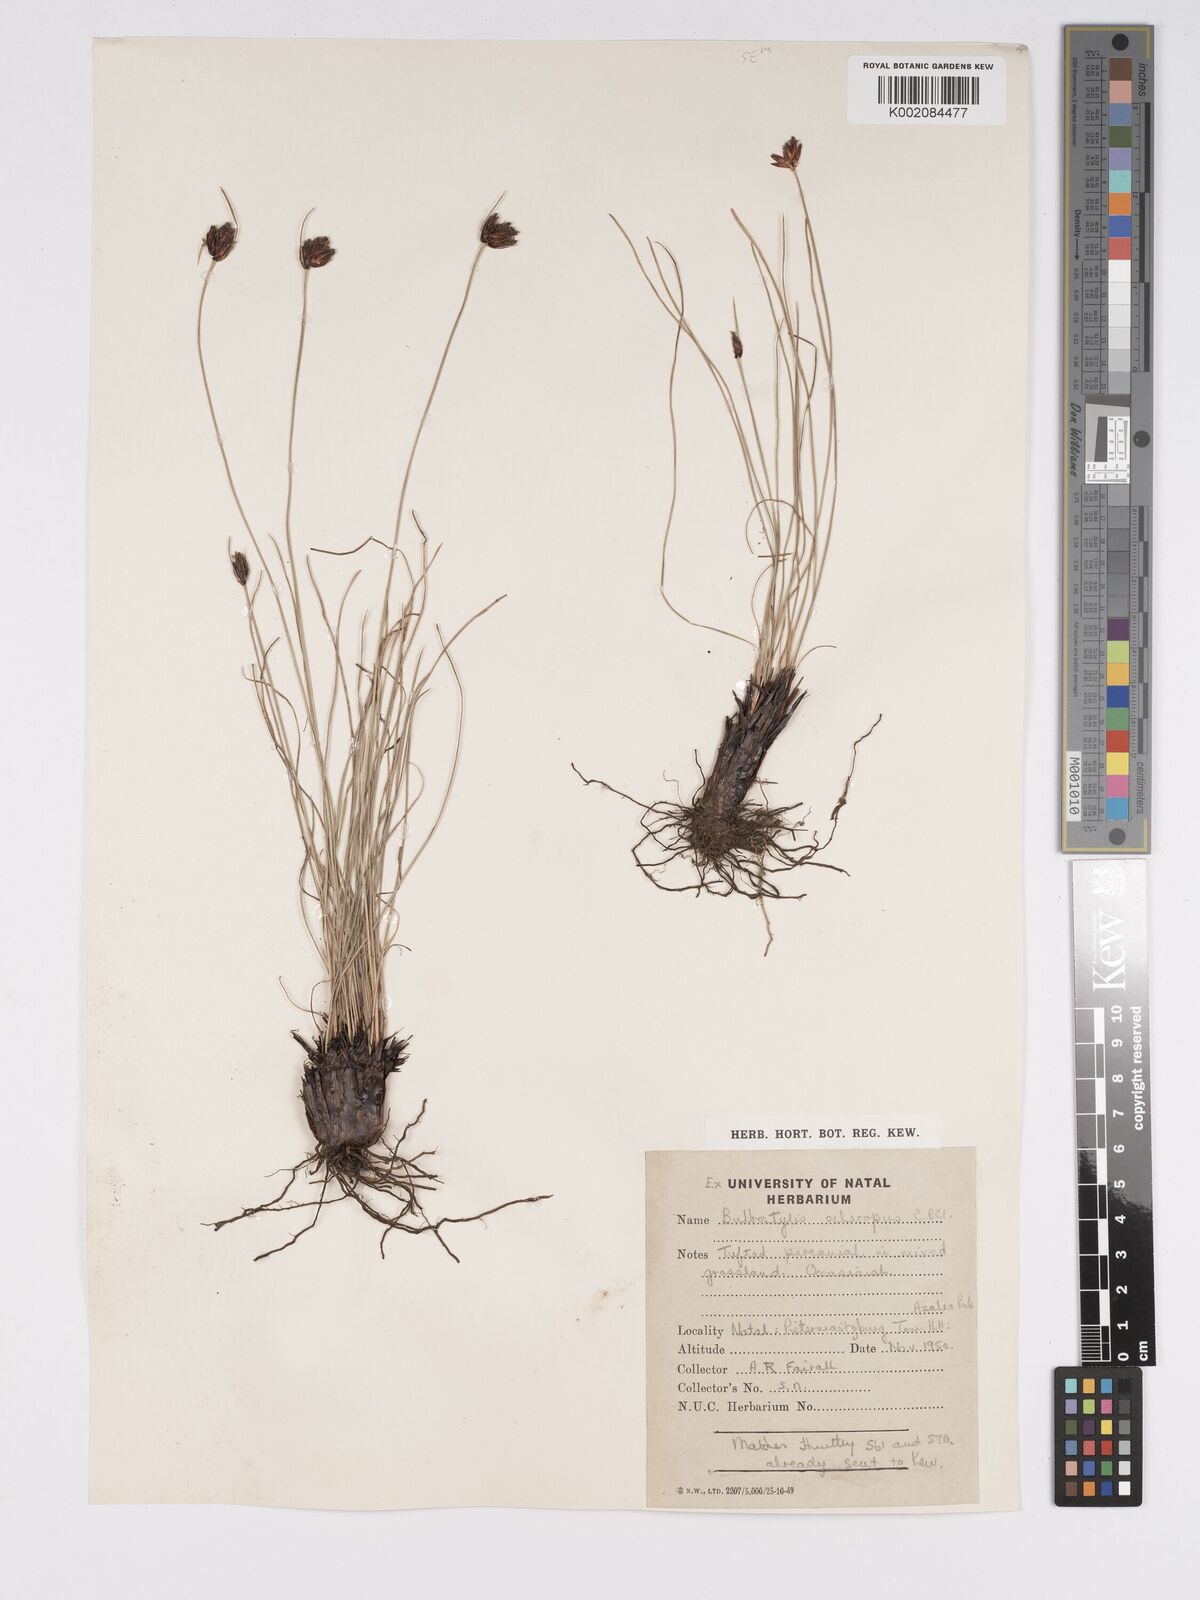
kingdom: Plantae
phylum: Tracheophyta
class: Liliopsida
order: Poales
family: Cyperaceae
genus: Bulbostylis
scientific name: Bulbostylis schoenoides
